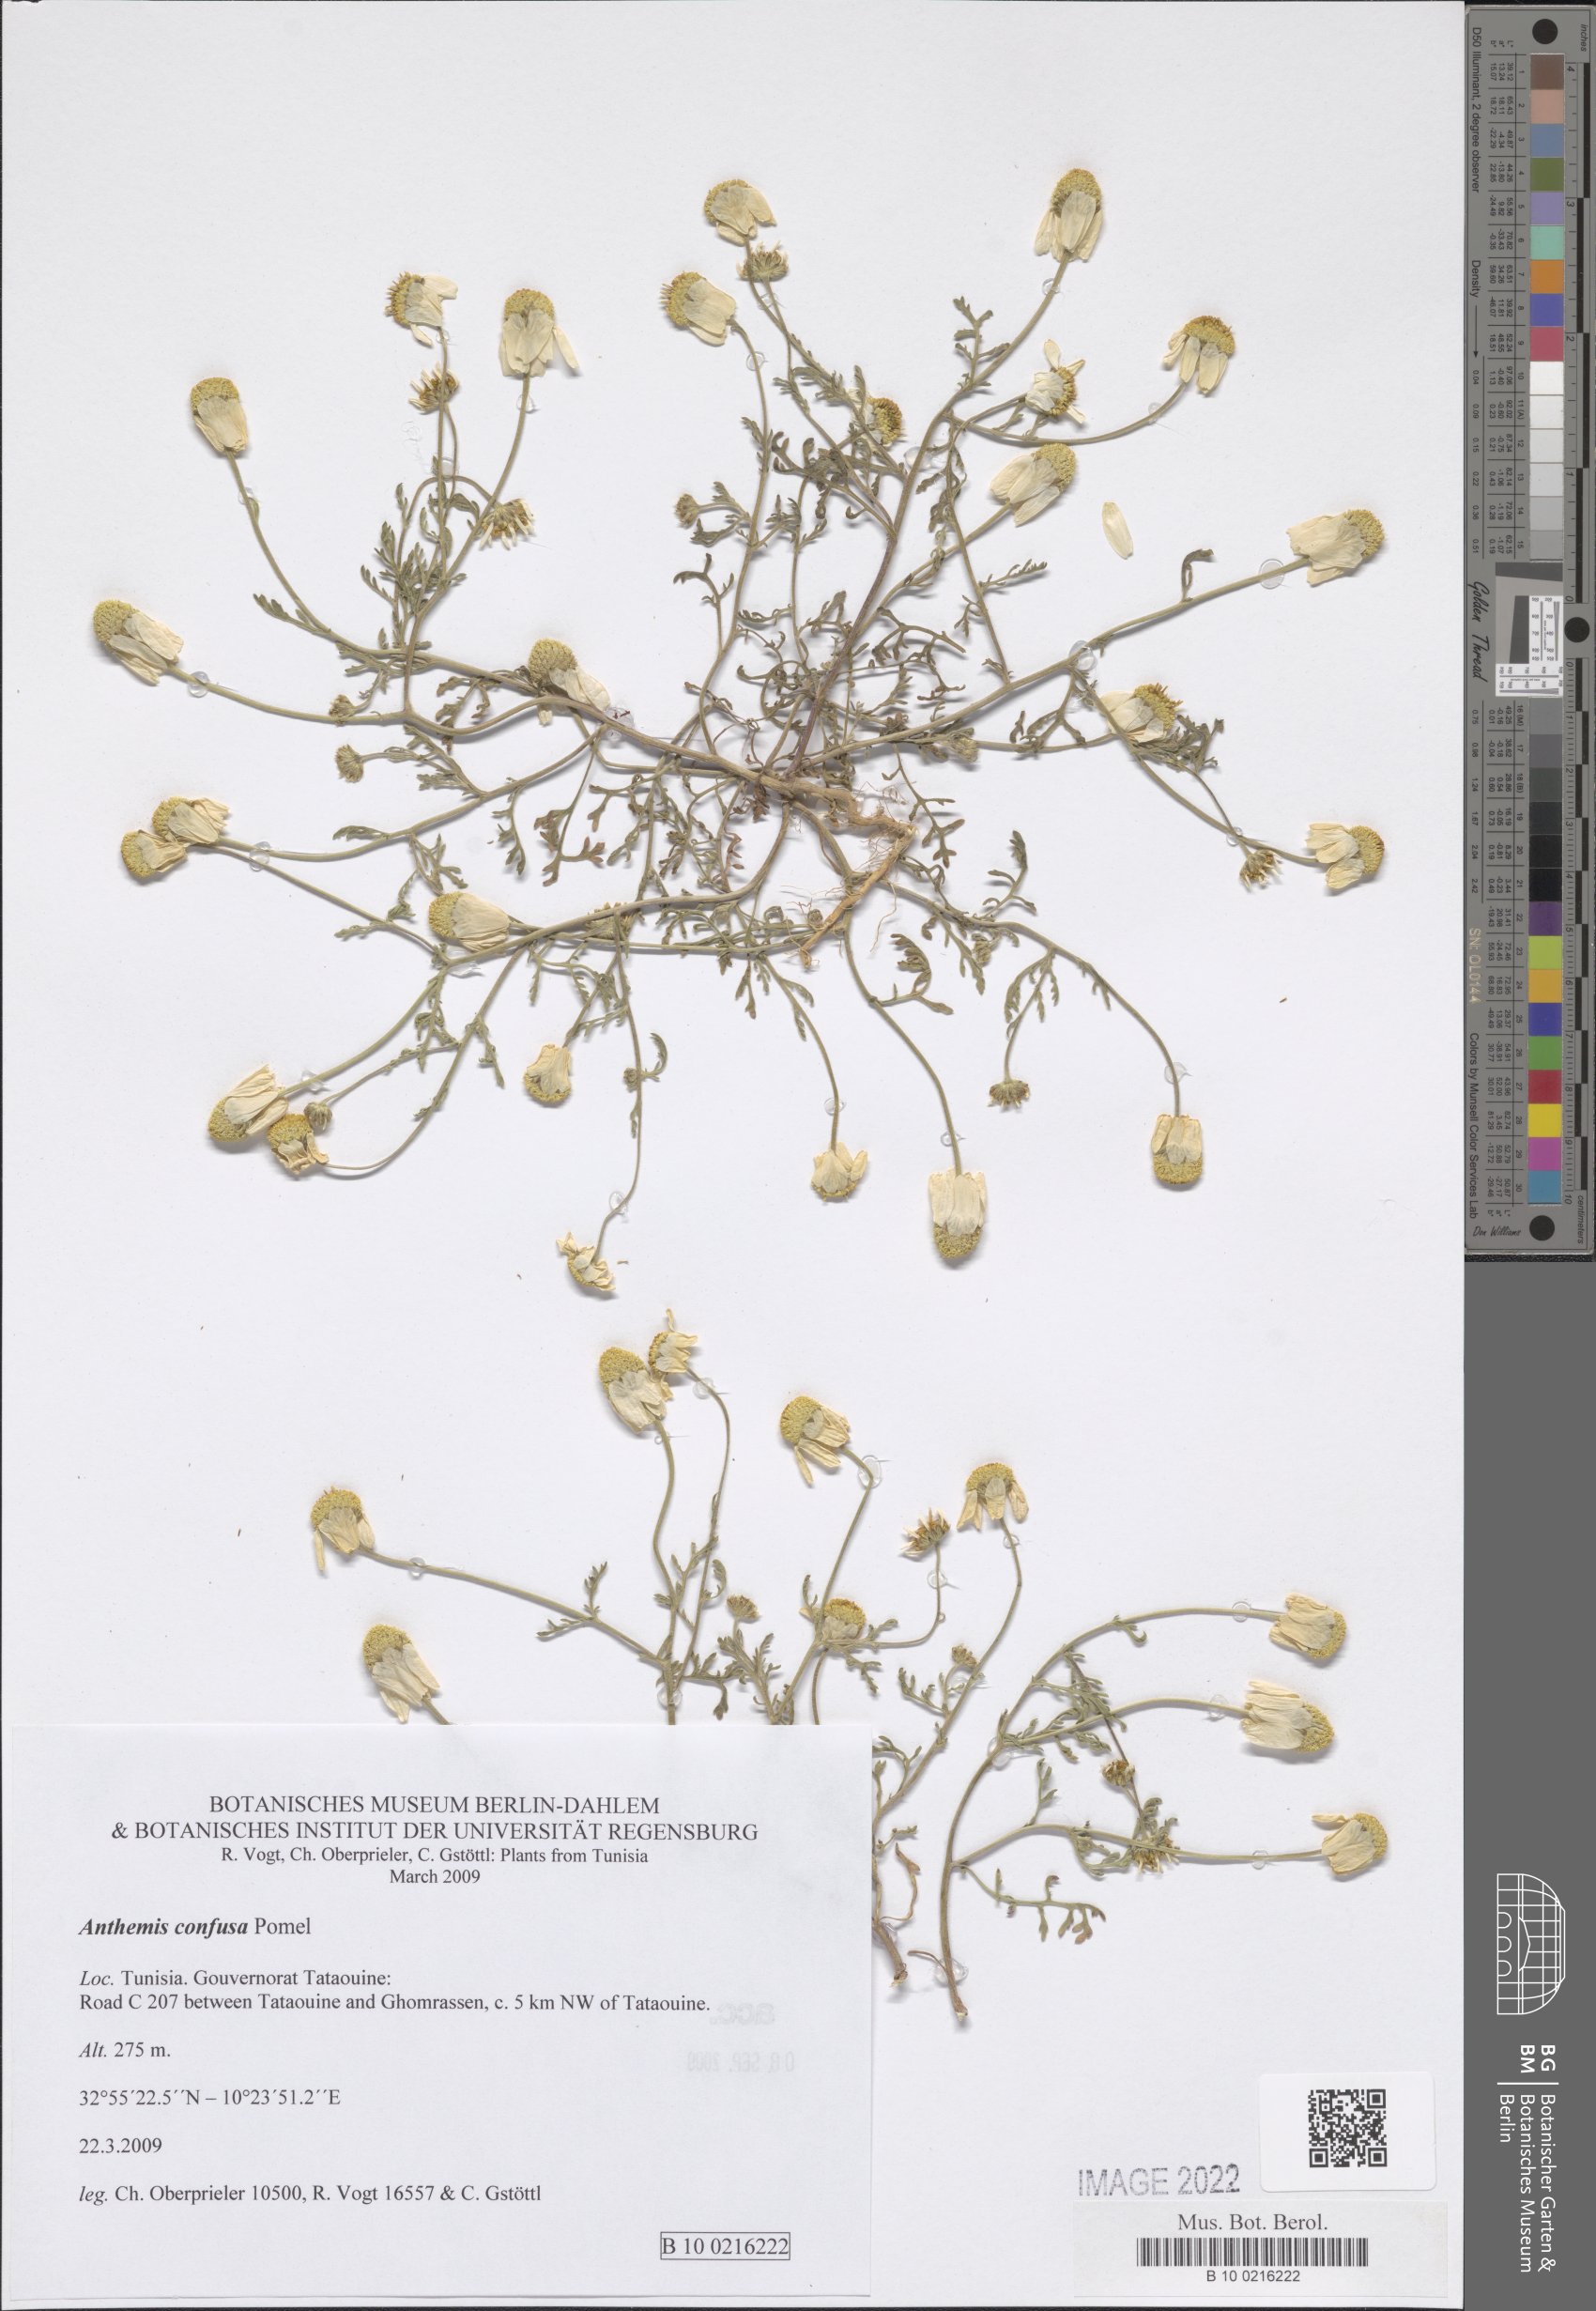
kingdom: Plantae
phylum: Tracheophyta
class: Magnoliopsida
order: Asterales
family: Asteraceae
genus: Anthemis
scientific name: Anthemis confusa
